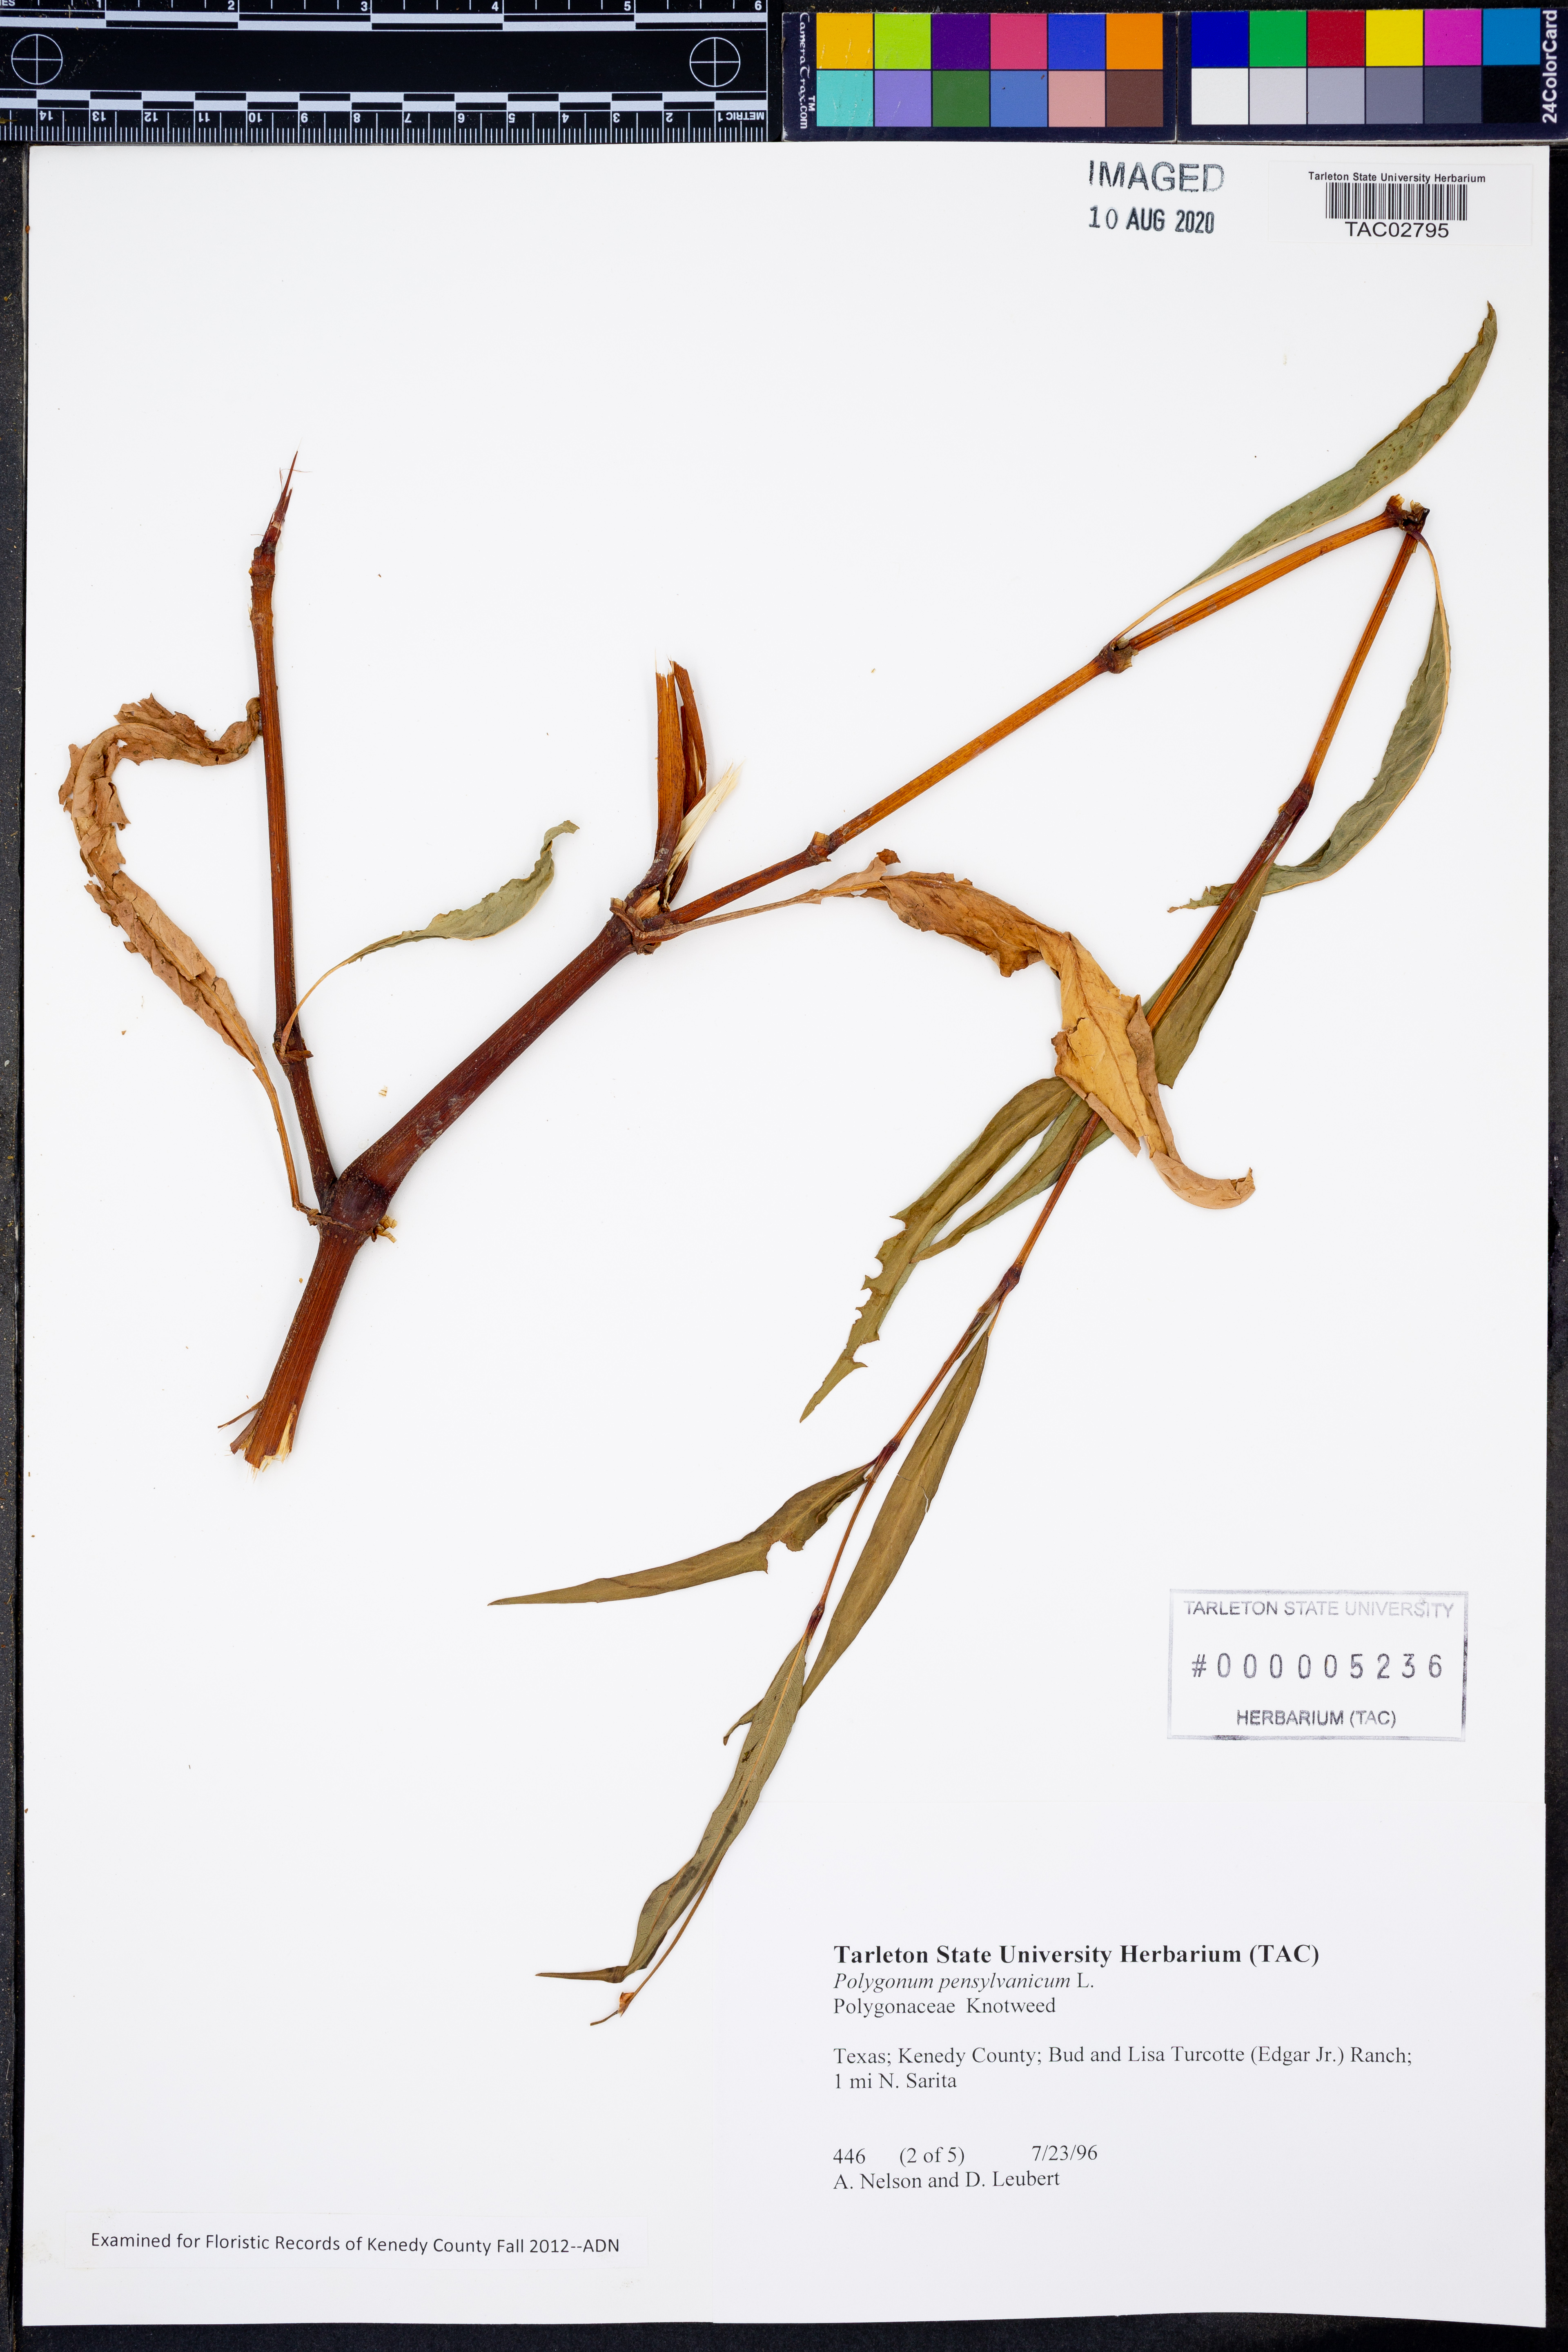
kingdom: Plantae
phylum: Tracheophyta
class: Magnoliopsida
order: Caryophyllales
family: Polygonaceae
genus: Persicaria
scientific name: Persicaria pensylvanica
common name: Pinkweed
